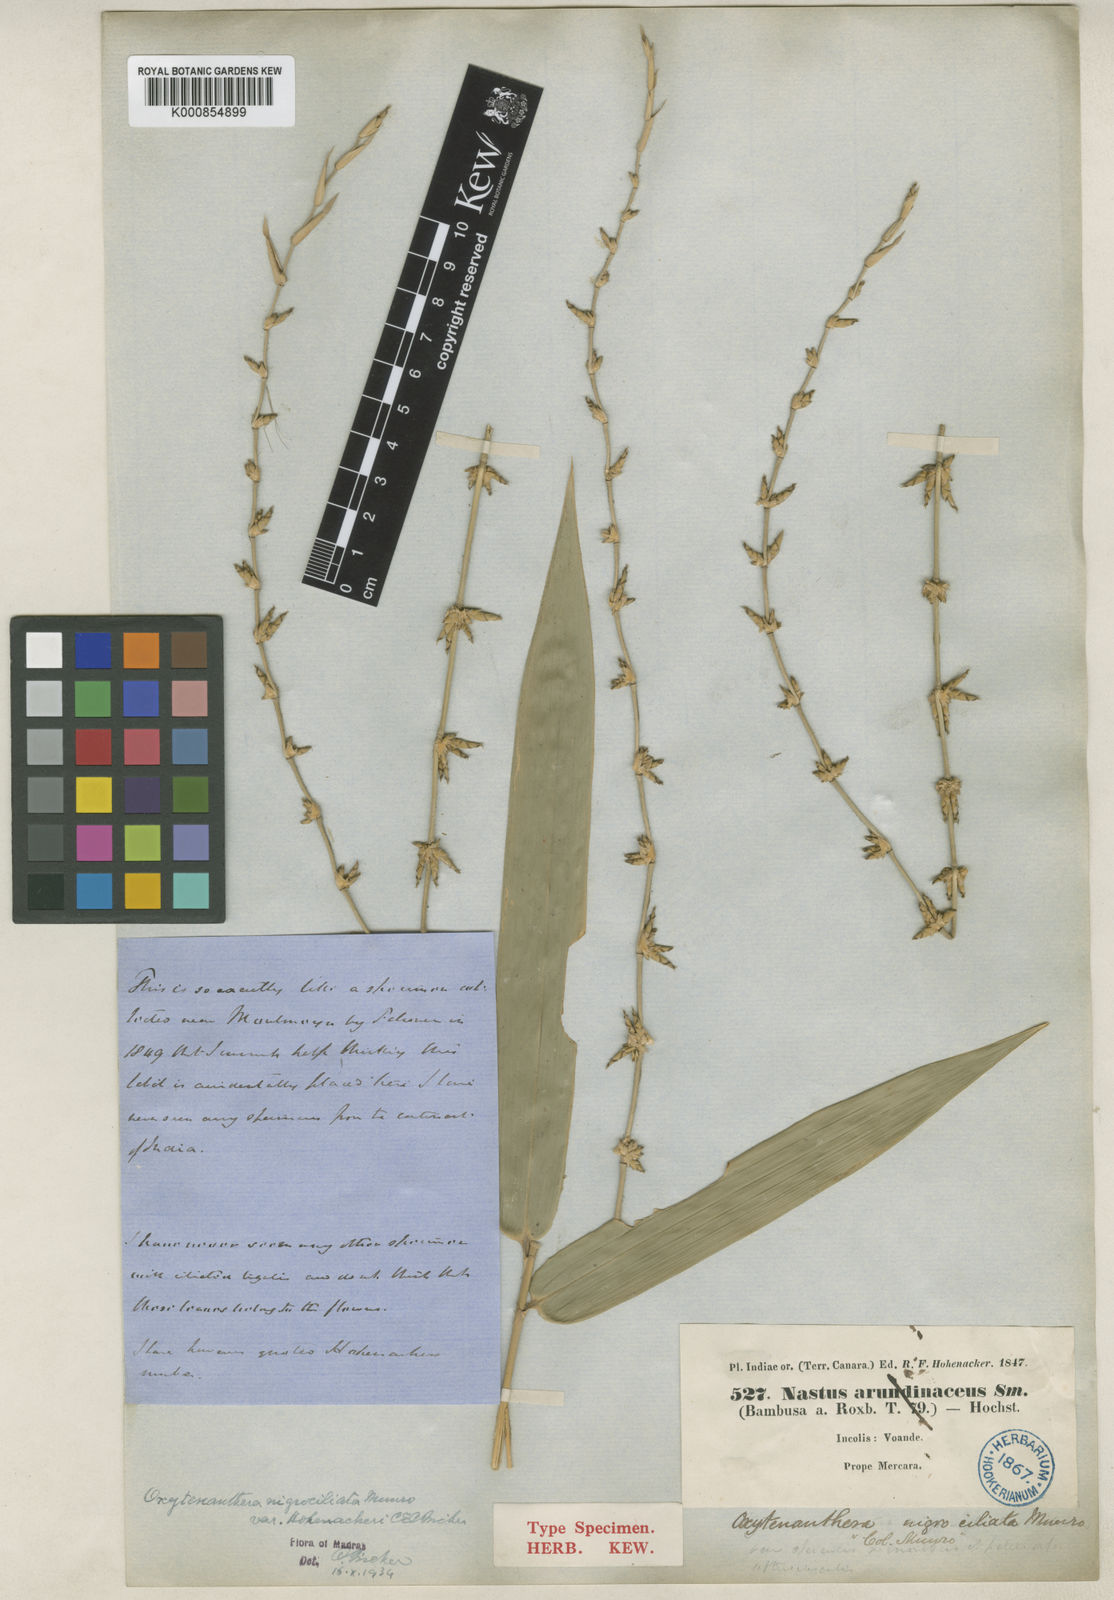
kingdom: Plantae
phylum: Tracheophyta
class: Liliopsida
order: Poales
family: Poaceae
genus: Gigantochloa
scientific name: Gigantochloa nigrociliata
